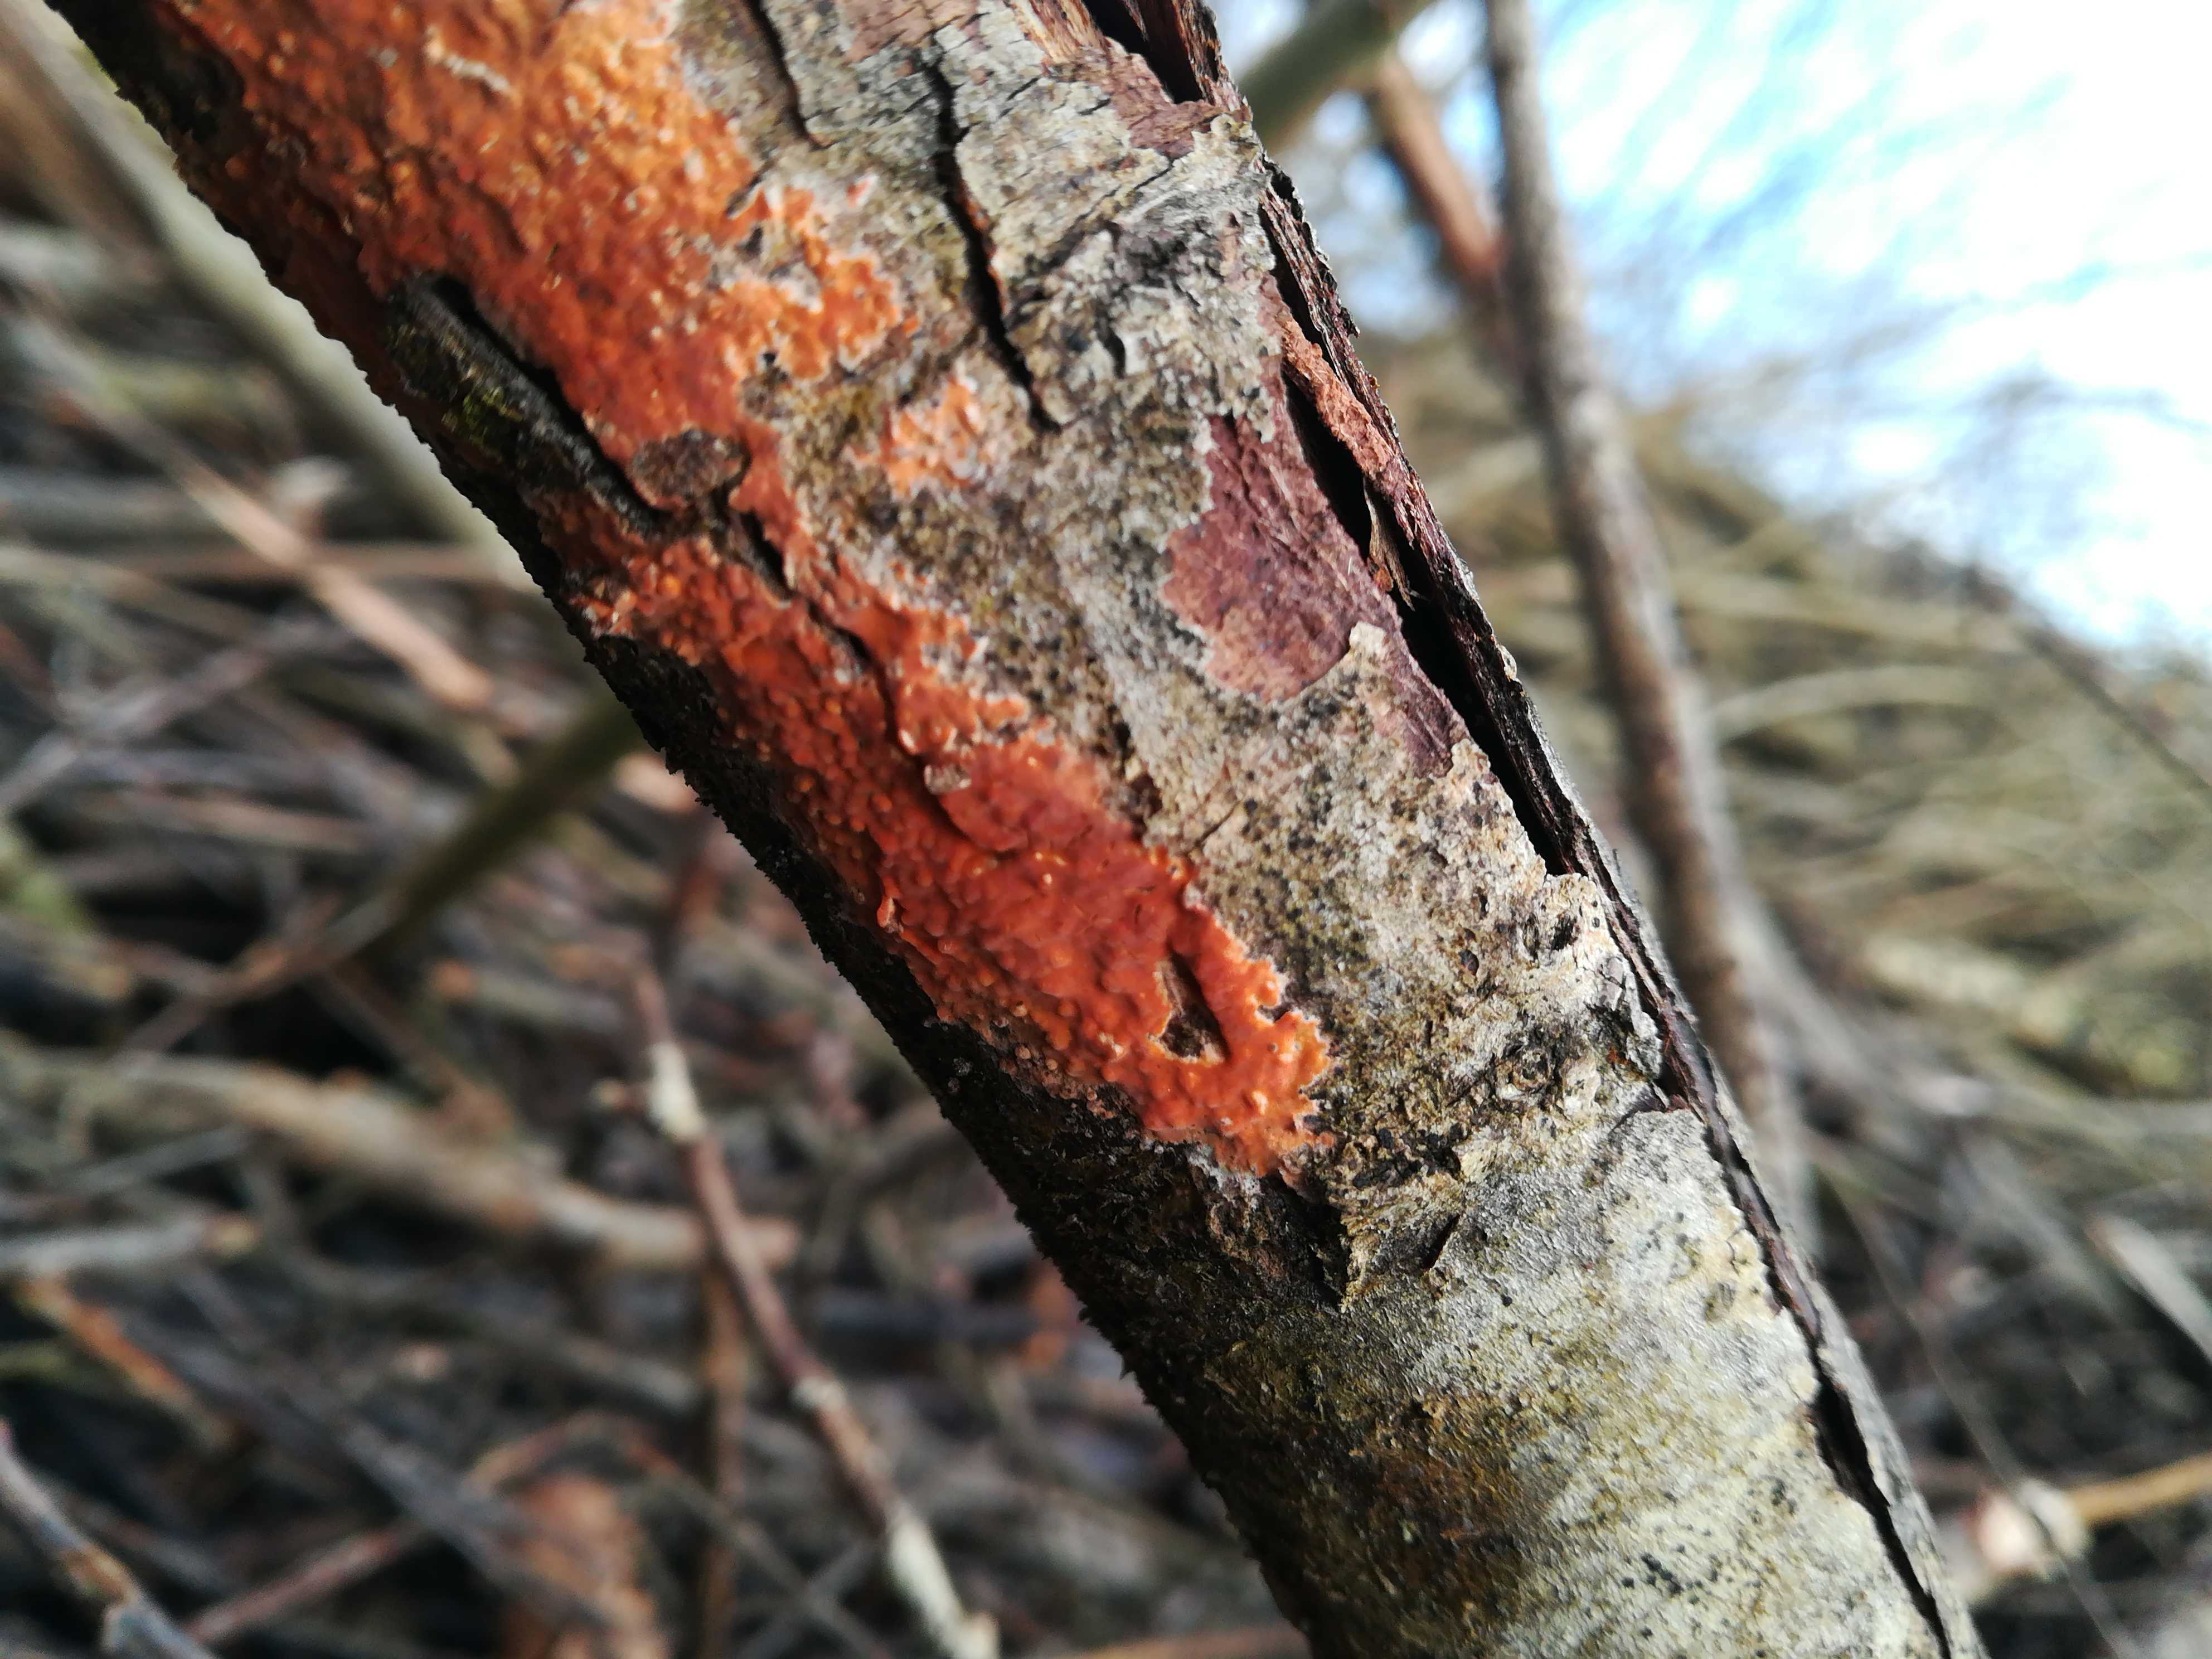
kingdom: Fungi
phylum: Basidiomycota
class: Agaricomycetes
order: Russulales
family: Peniophoraceae
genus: Peniophora
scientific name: Peniophora incarnata
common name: laksefarvet voksskind
